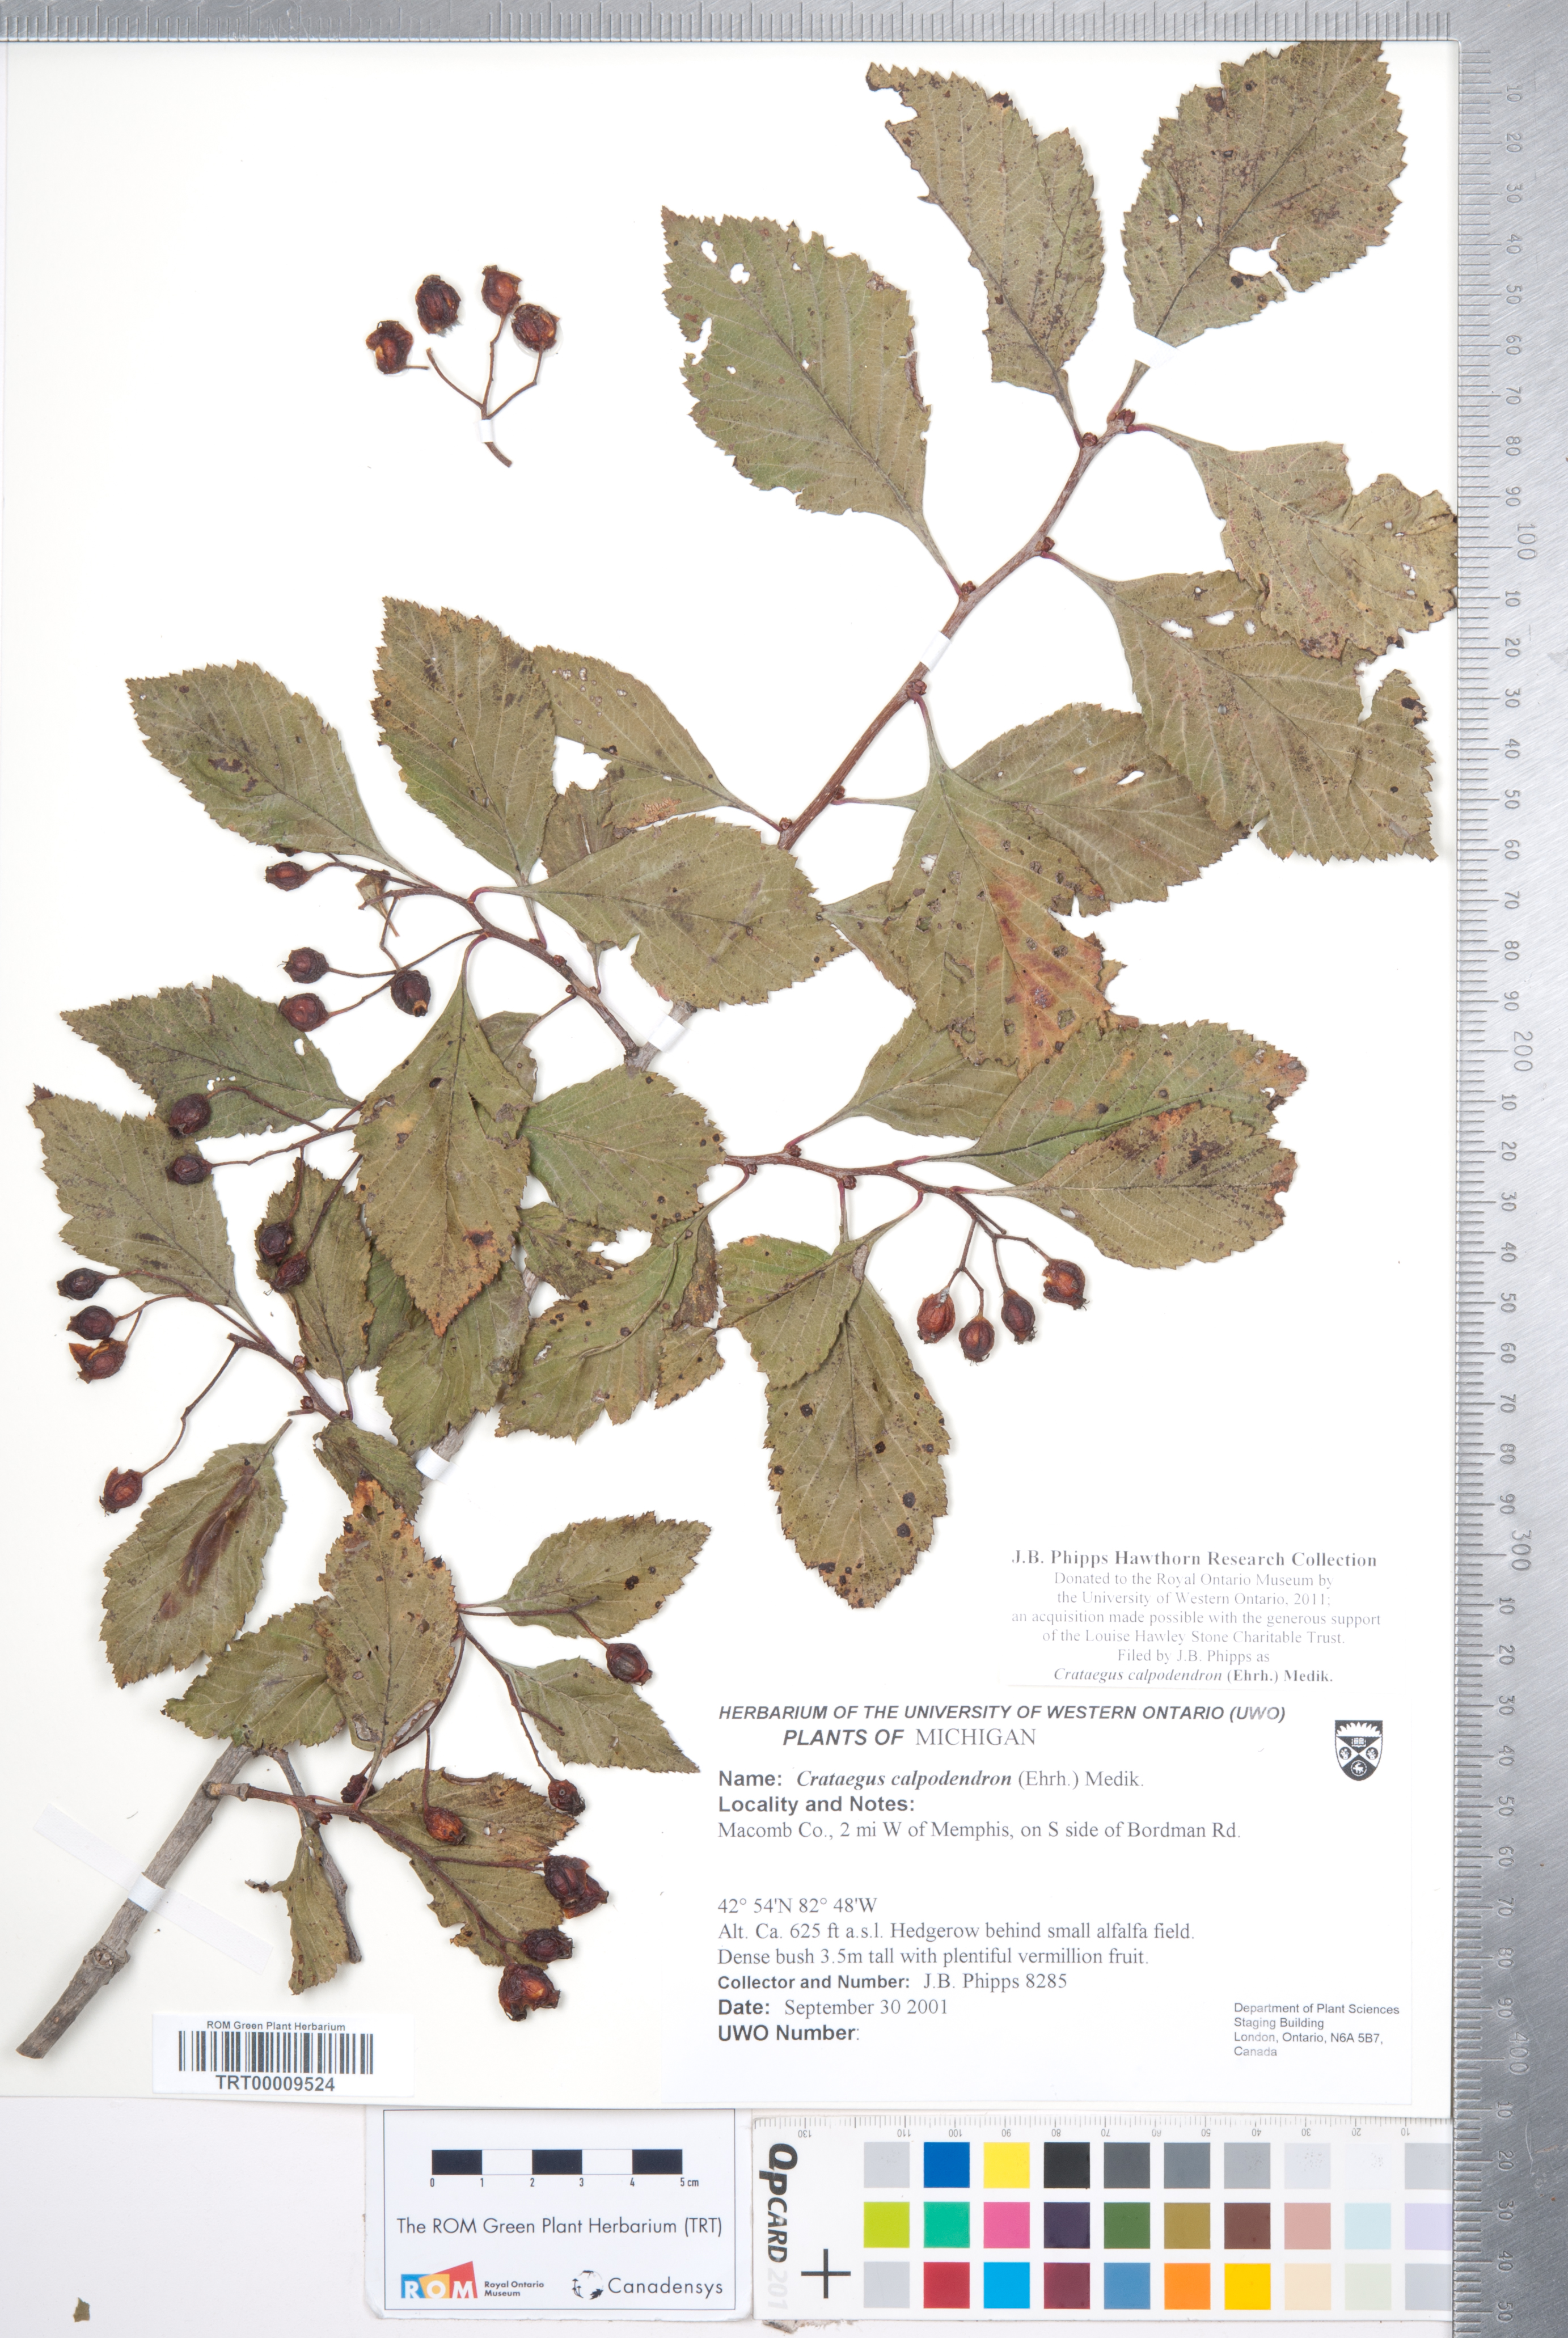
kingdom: Plantae
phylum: Tracheophyta
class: Magnoliopsida
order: Rosales
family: Rosaceae
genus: Crataegus
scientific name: Crataegus calpodendron
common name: Pear hawthorn
